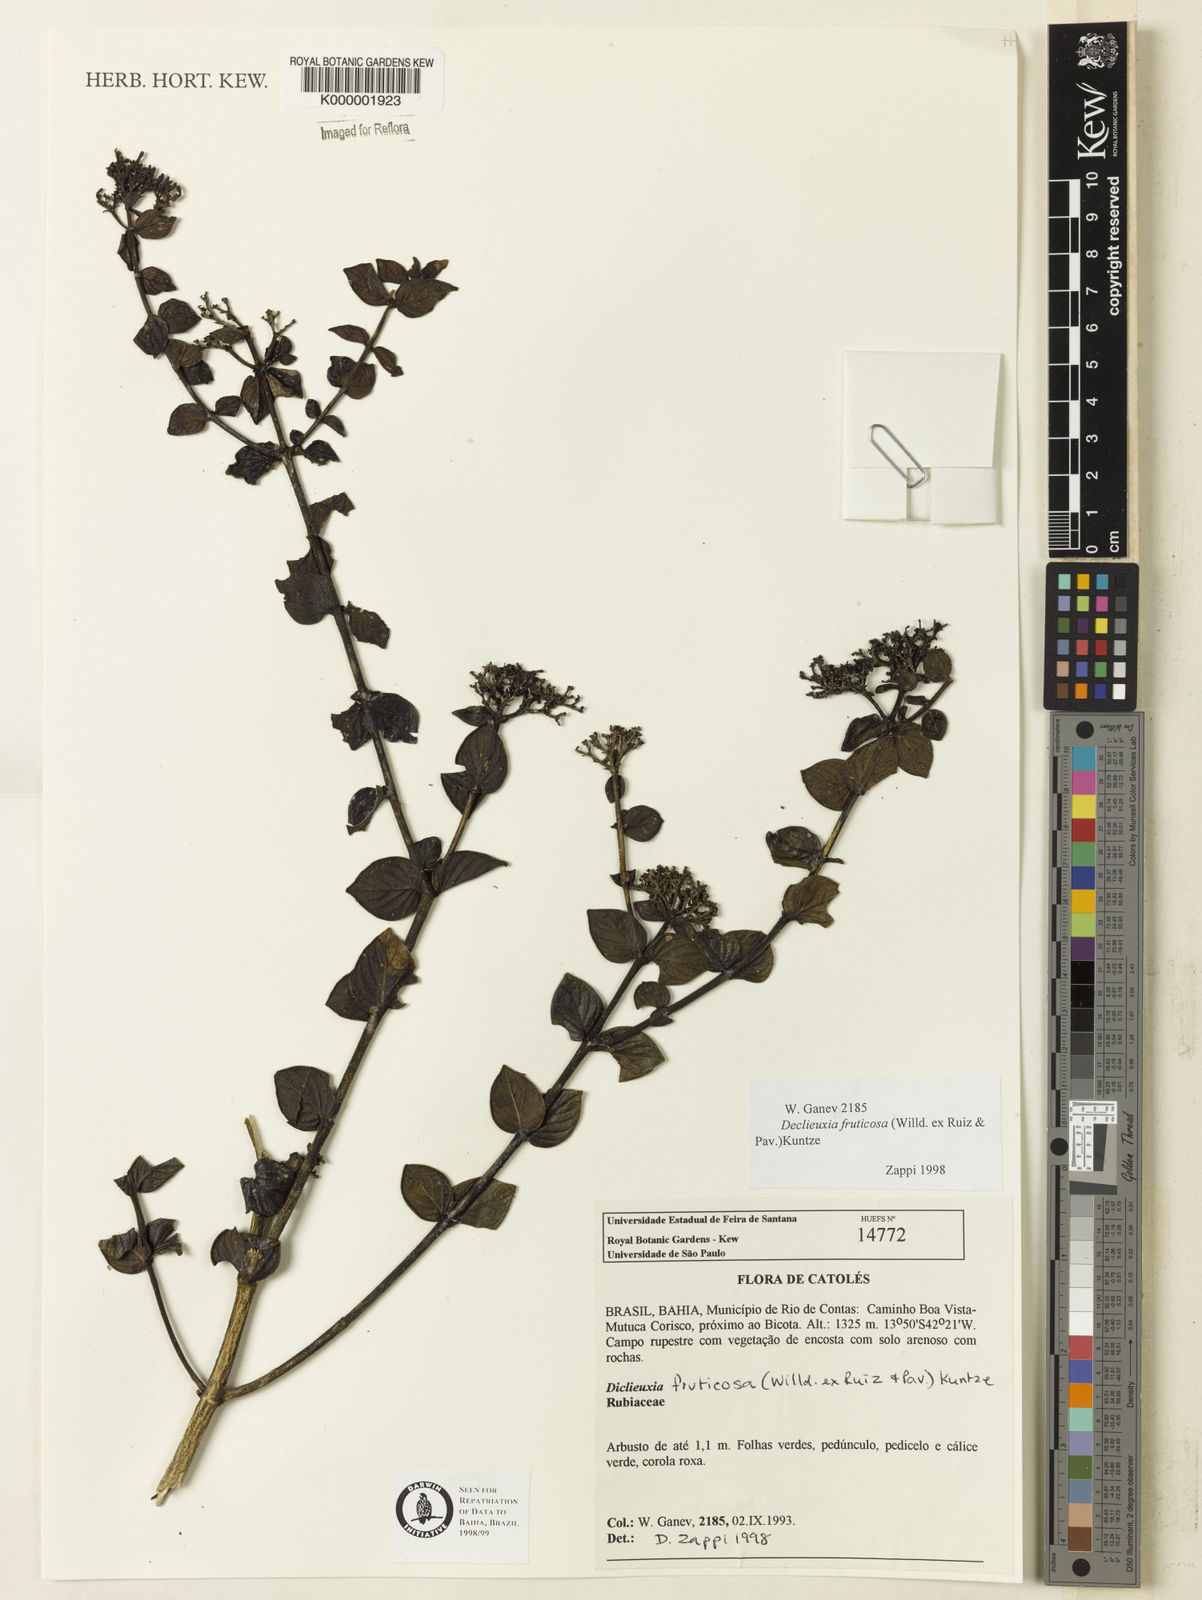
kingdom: Plantae
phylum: Tracheophyta
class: Magnoliopsida
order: Gentianales
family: Rubiaceae
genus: Declieuxia
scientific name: Declieuxia fruticosa
